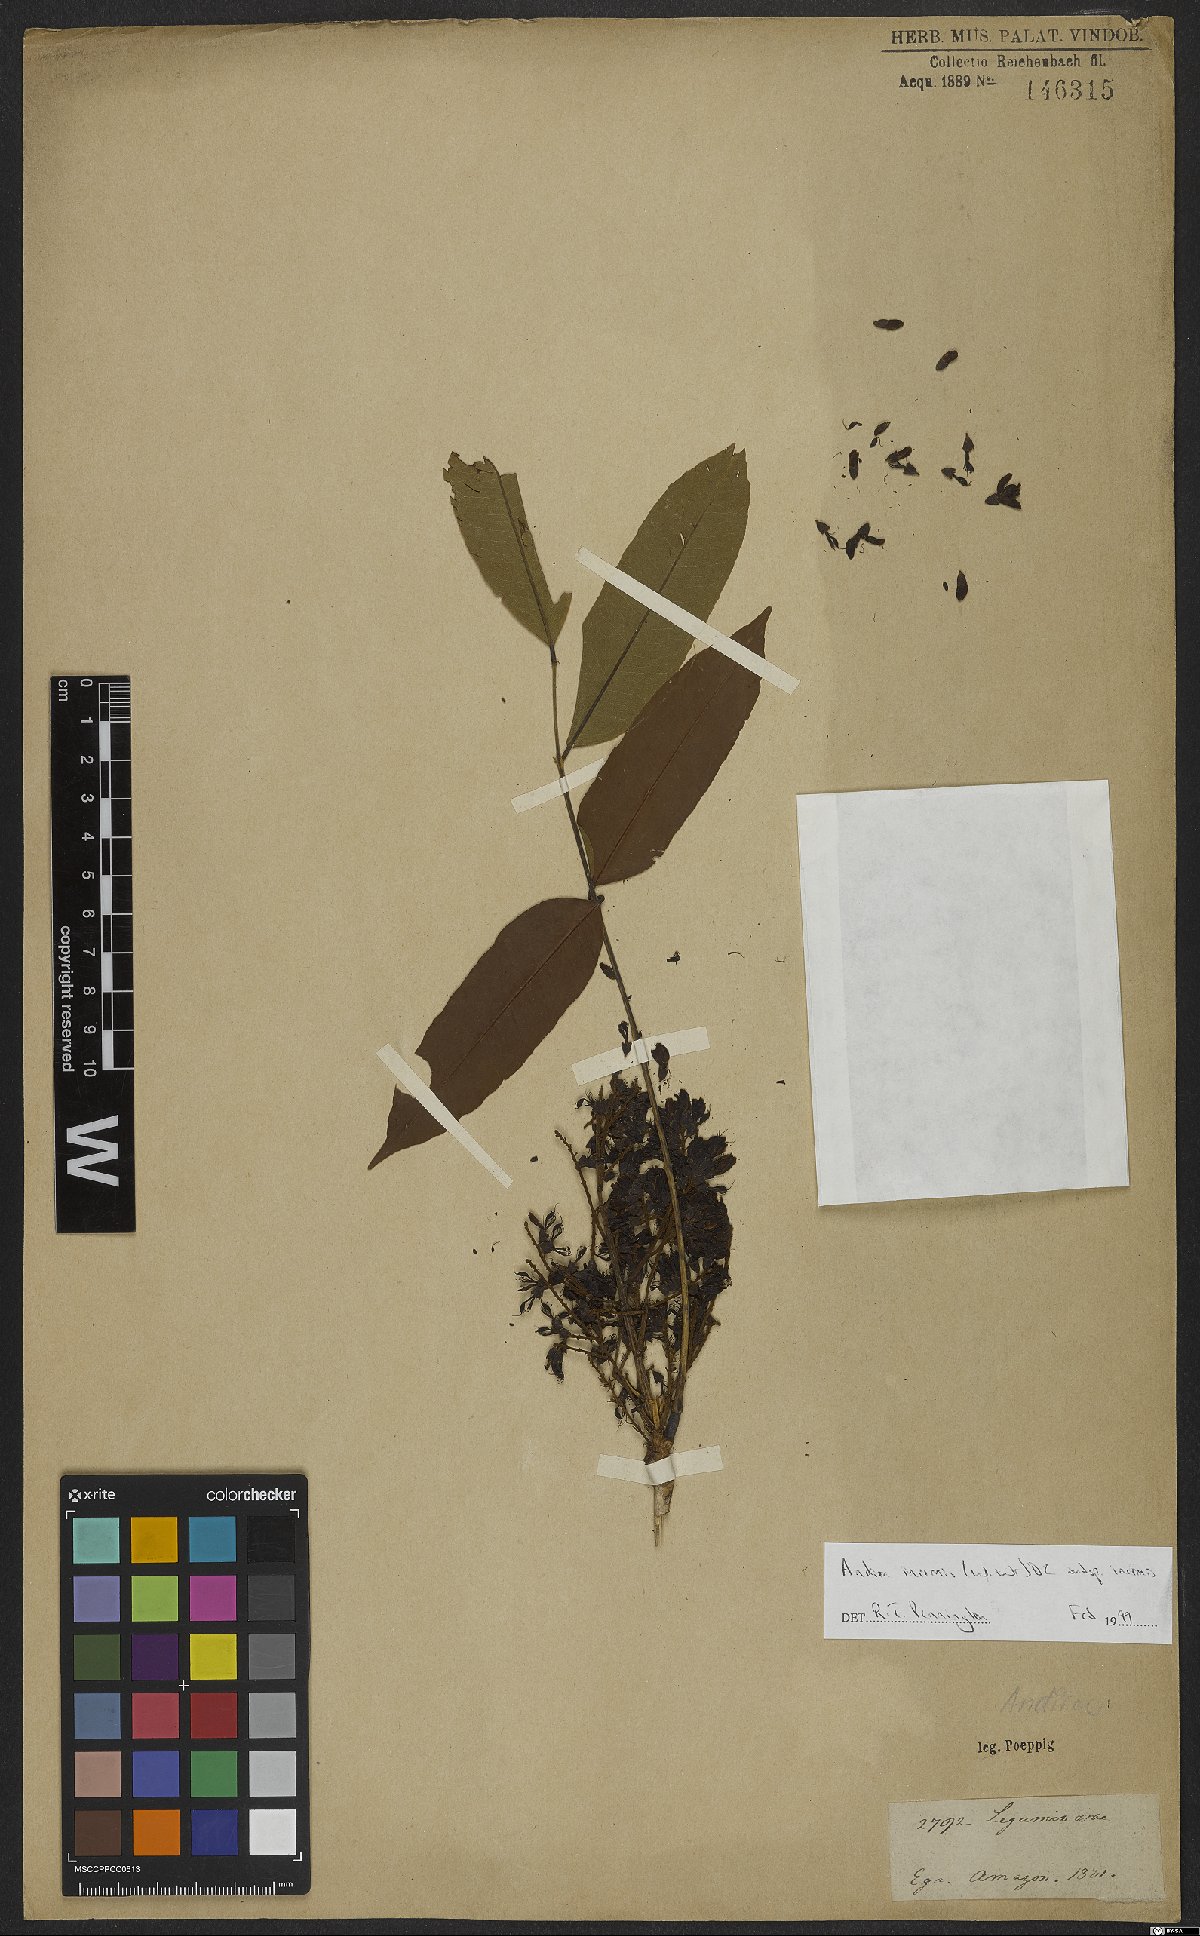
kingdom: Plantae
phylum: Tracheophyta
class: Magnoliopsida
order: Fabales
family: Fabaceae
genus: Andira
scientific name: Andira inermis
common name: Angelin
